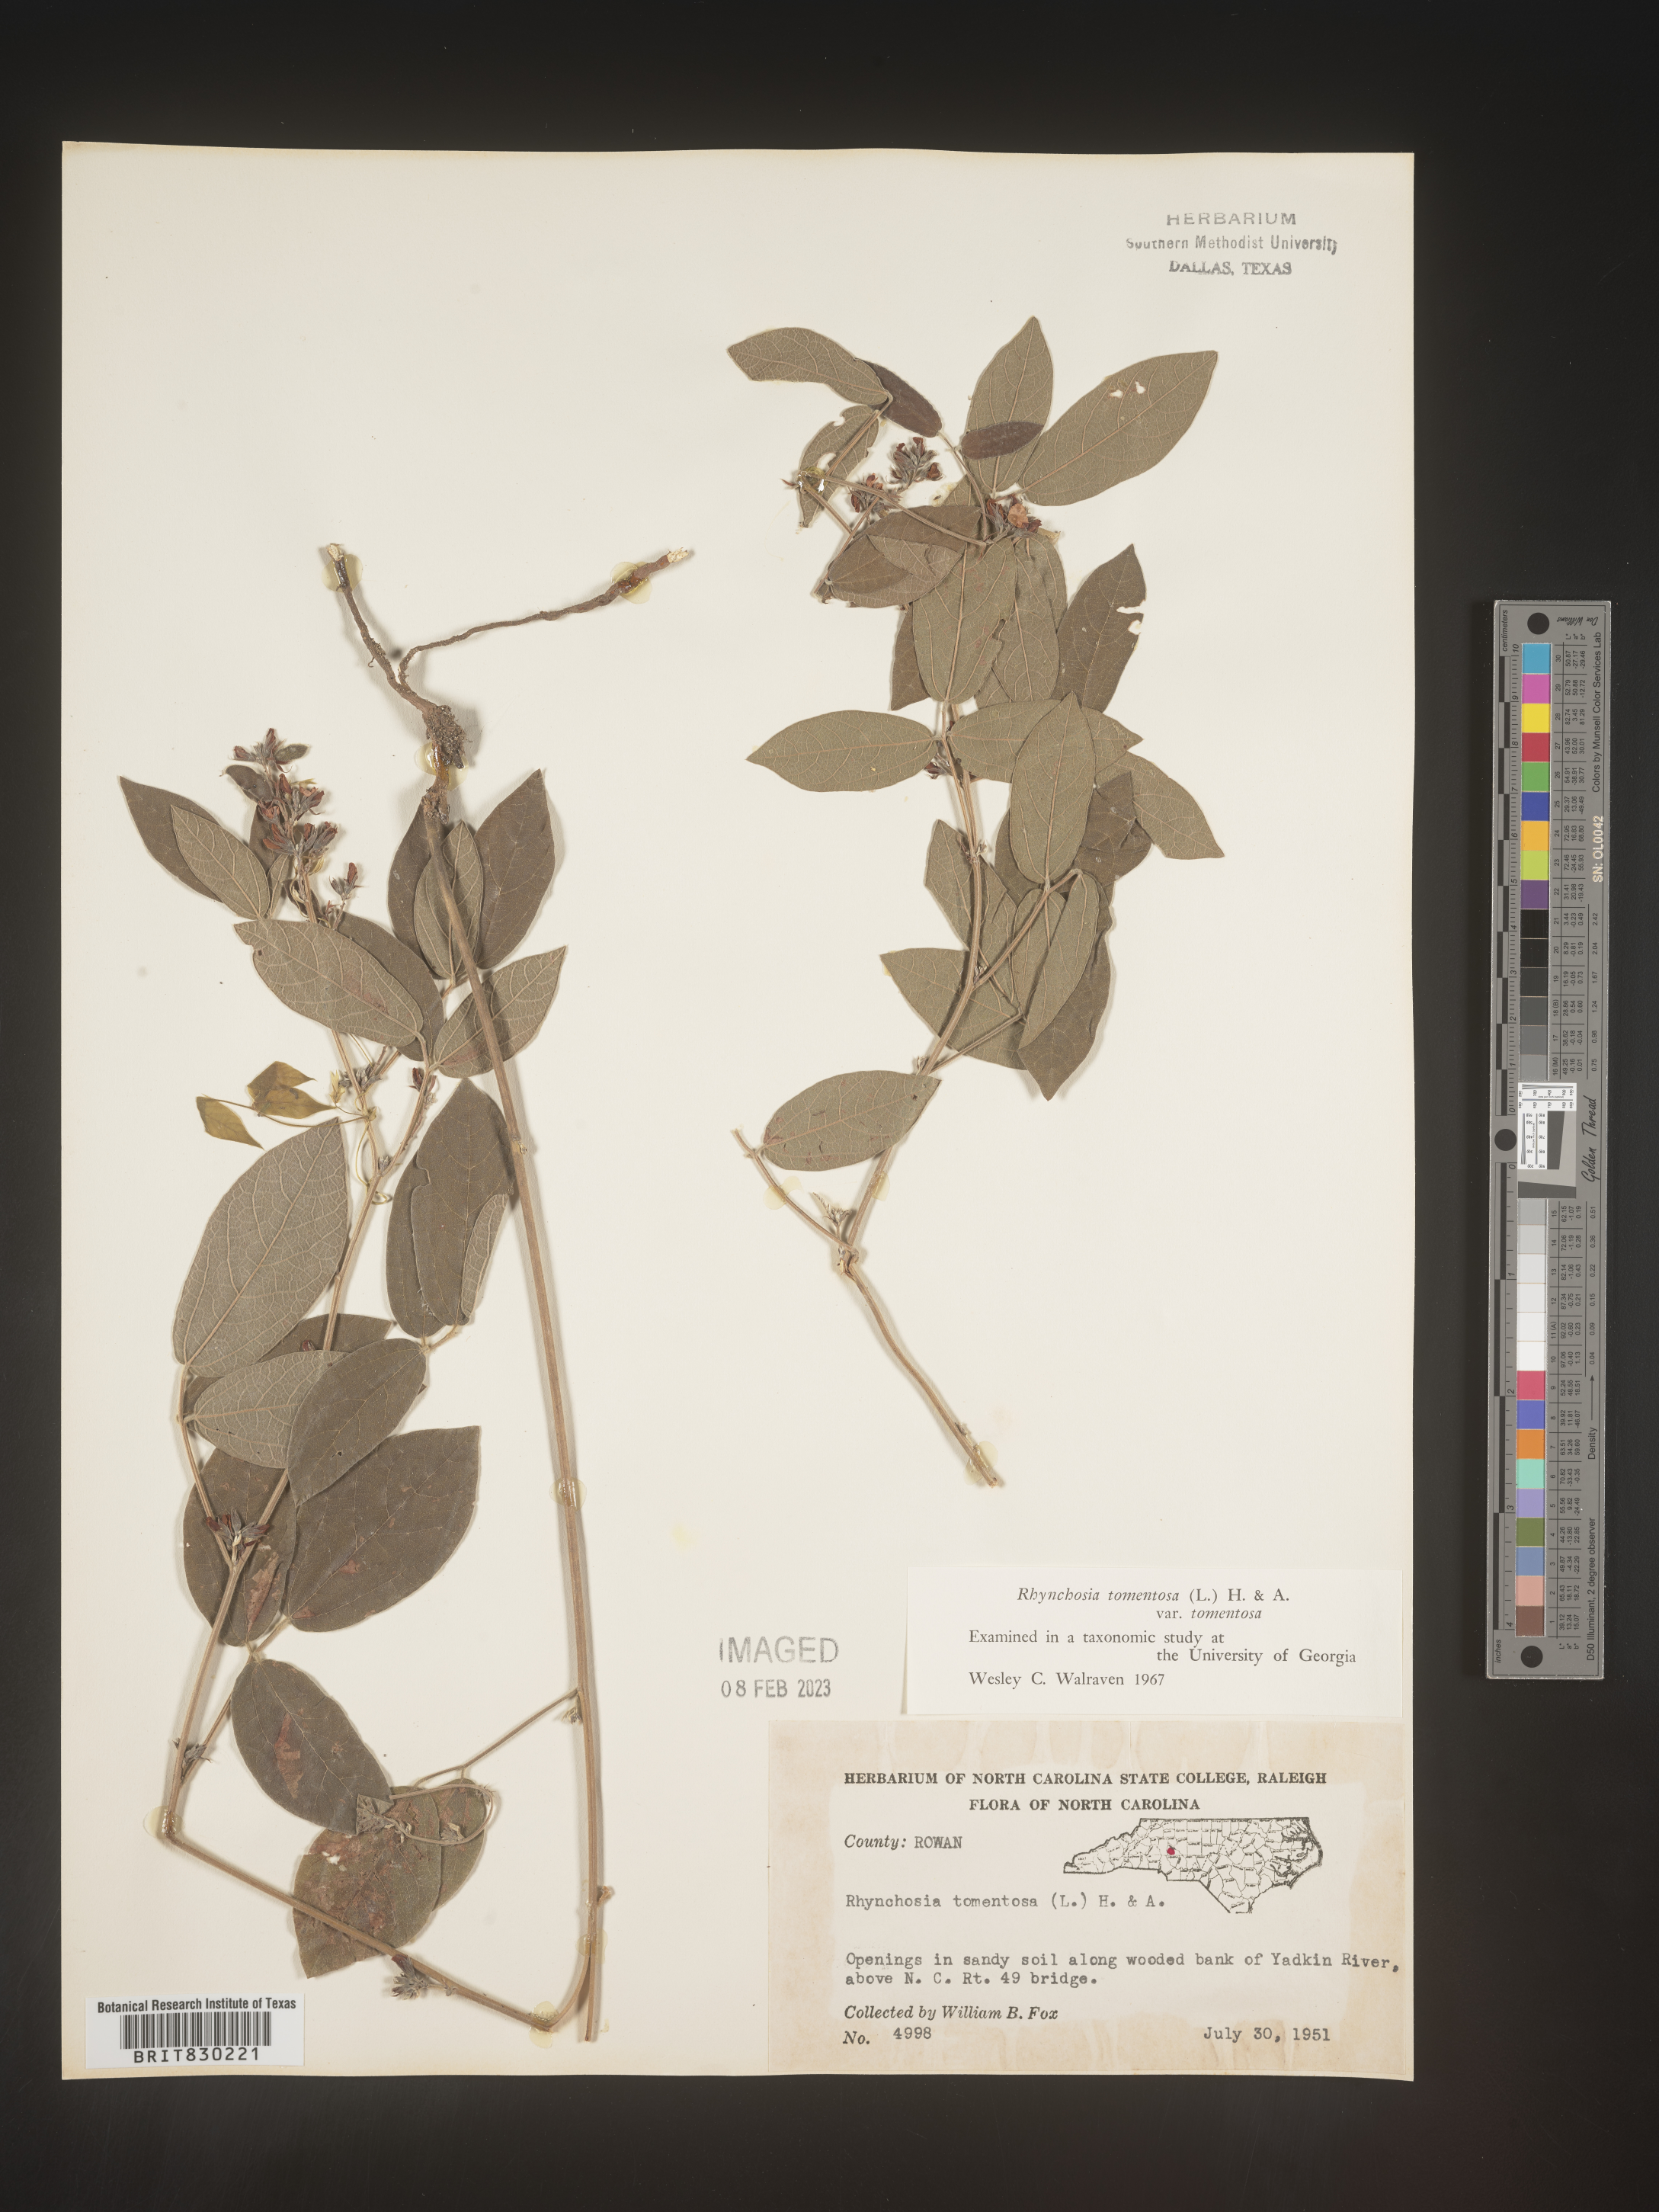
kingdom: Plantae
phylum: Tracheophyta
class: Magnoliopsida
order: Fabales
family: Fabaceae
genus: Rhynchosia
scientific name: Rhynchosia rothii
